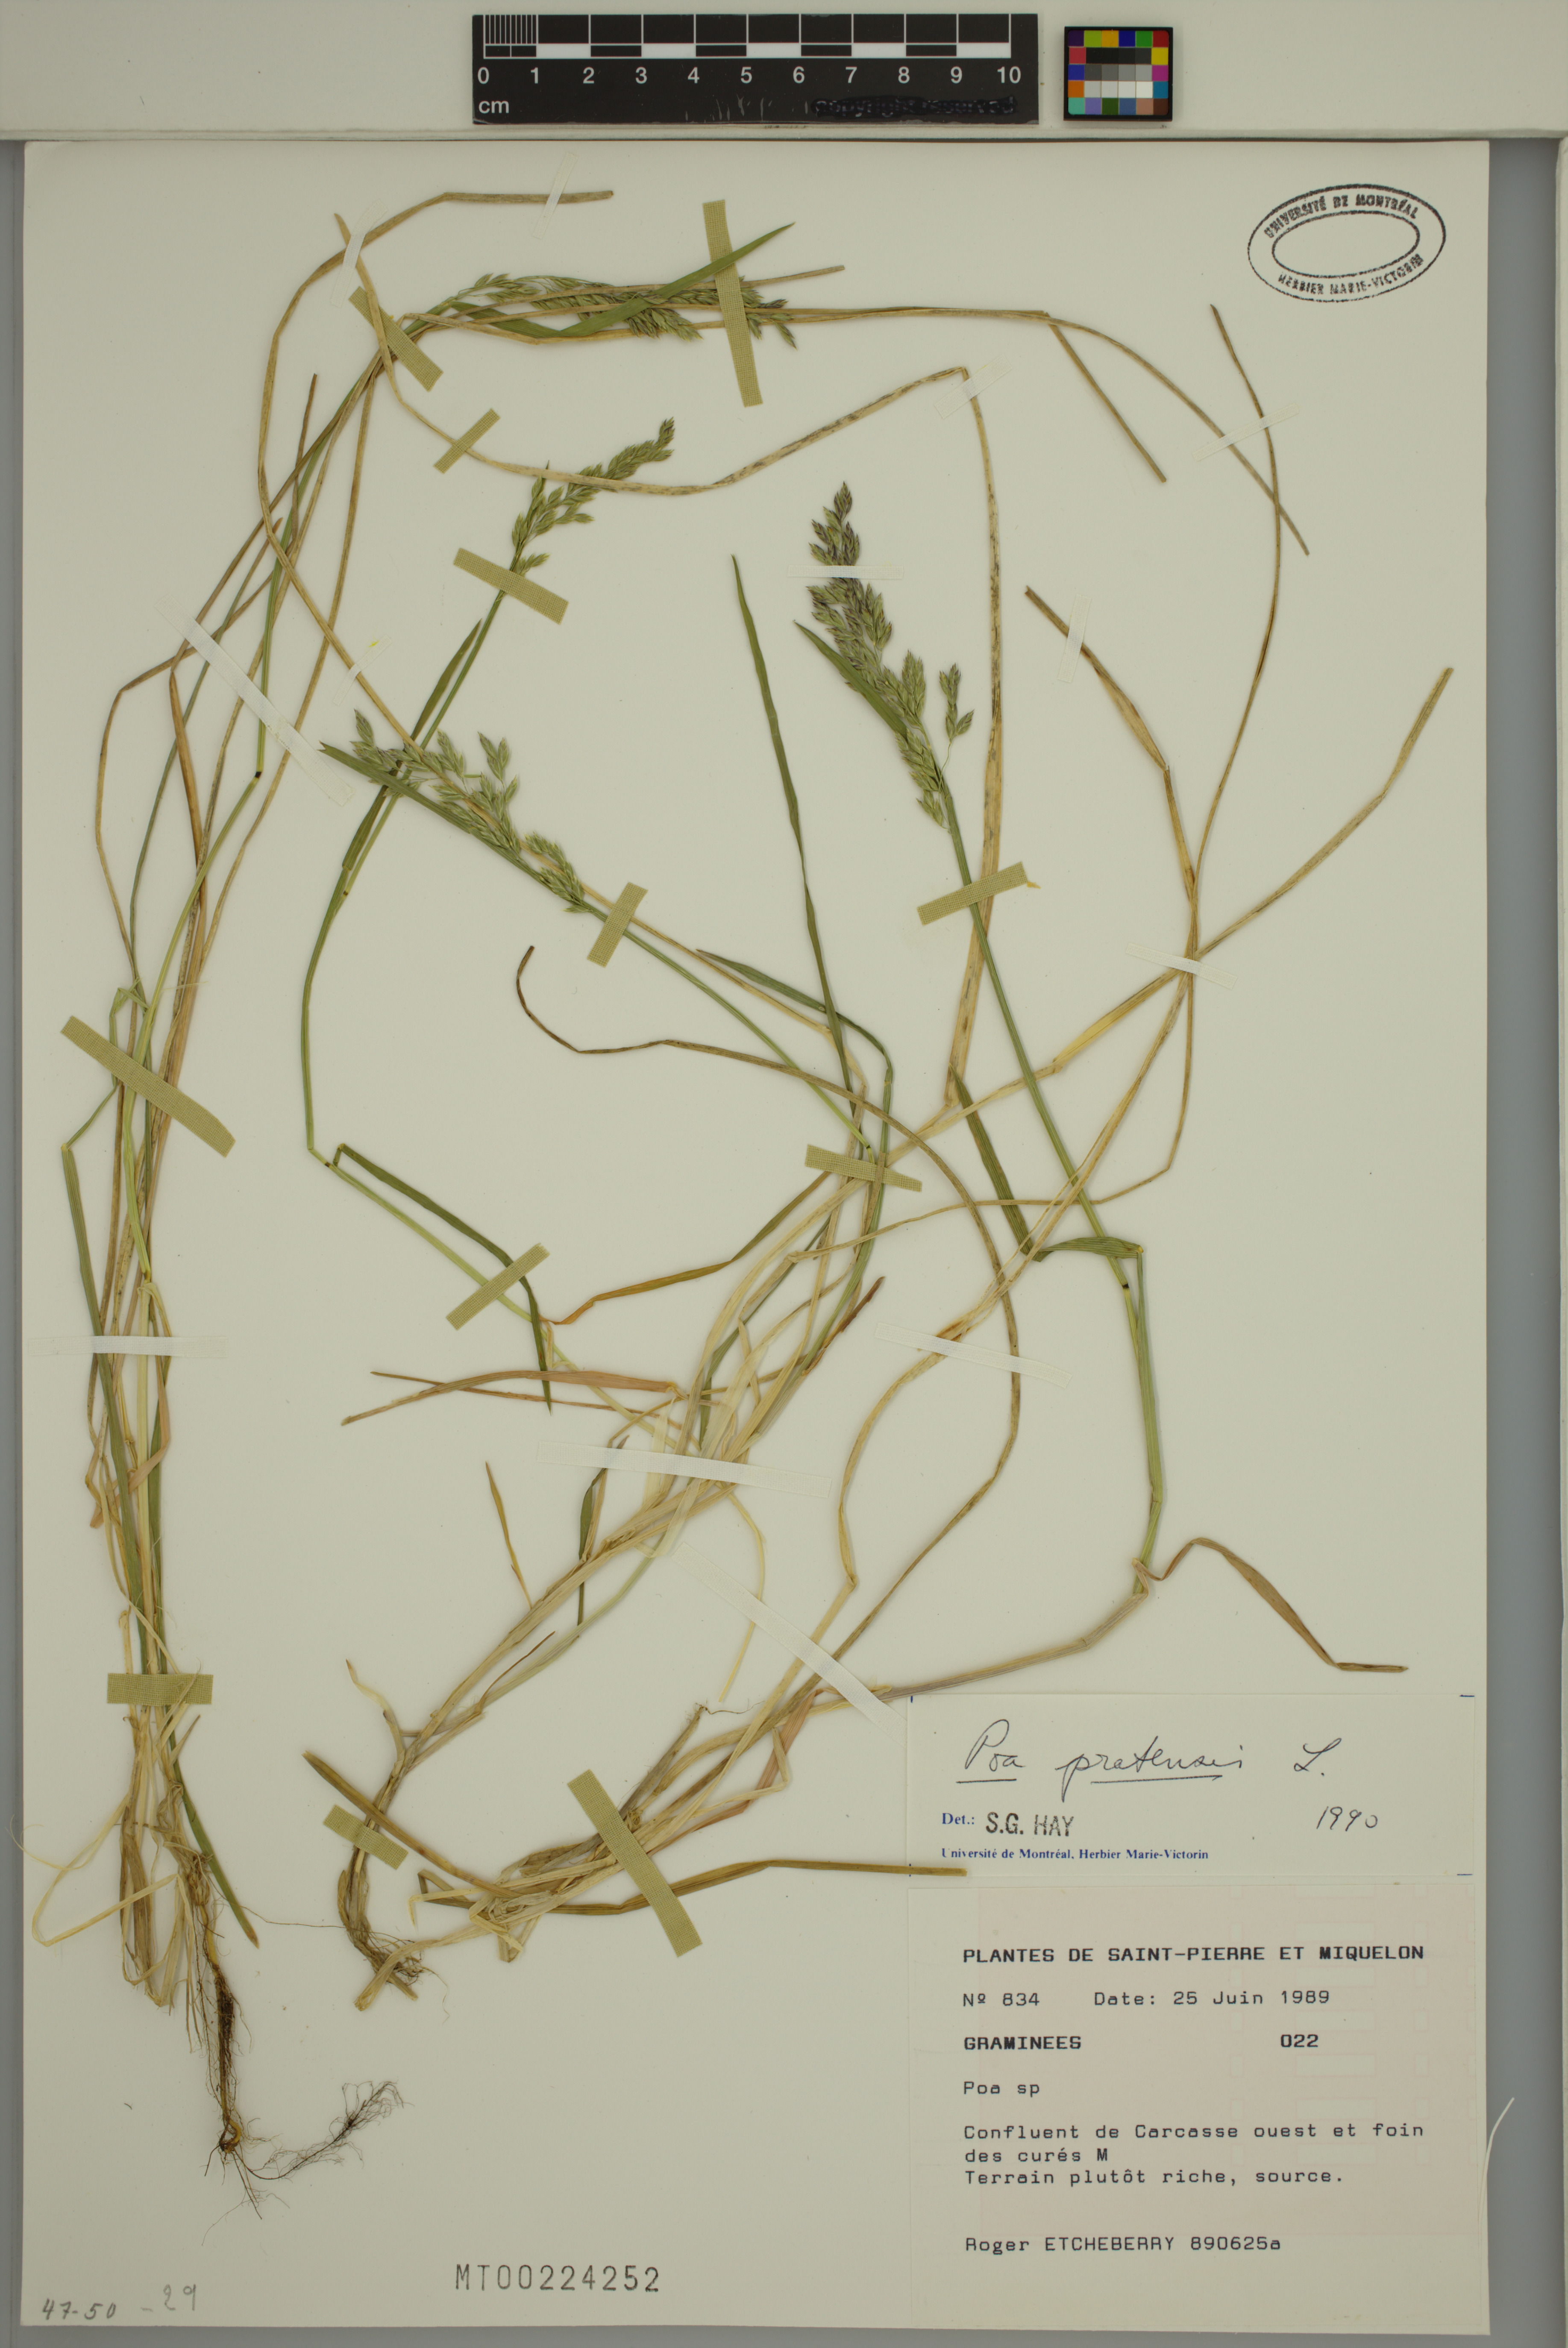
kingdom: Plantae
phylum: Tracheophyta
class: Liliopsida
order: Poales
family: Poaceae
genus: Poa
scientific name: Poa pratensis
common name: Kentucky bluegrass
